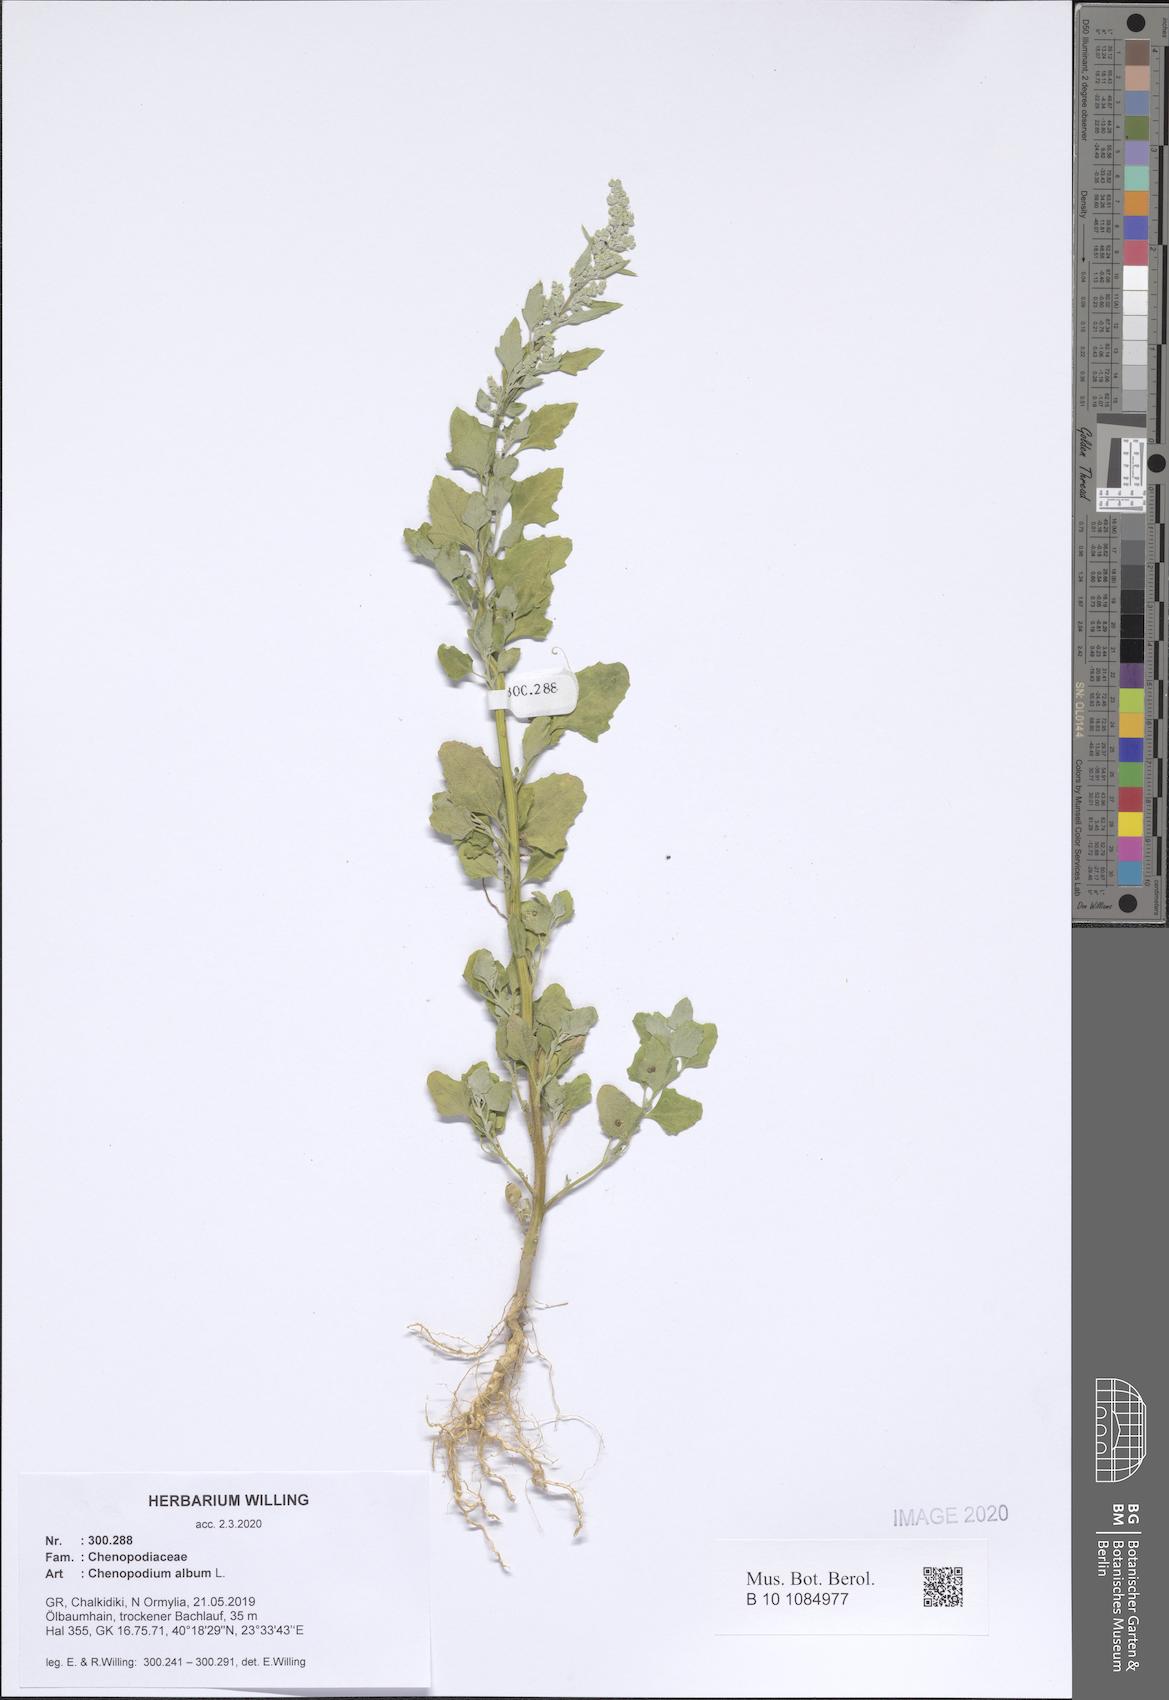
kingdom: Plantae
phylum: Tracheophyta
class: Magnoliopsida
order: Caryophyllales
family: Amaranthaceae
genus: Chenopodium
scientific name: Chenopodium album
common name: Fat-hen
